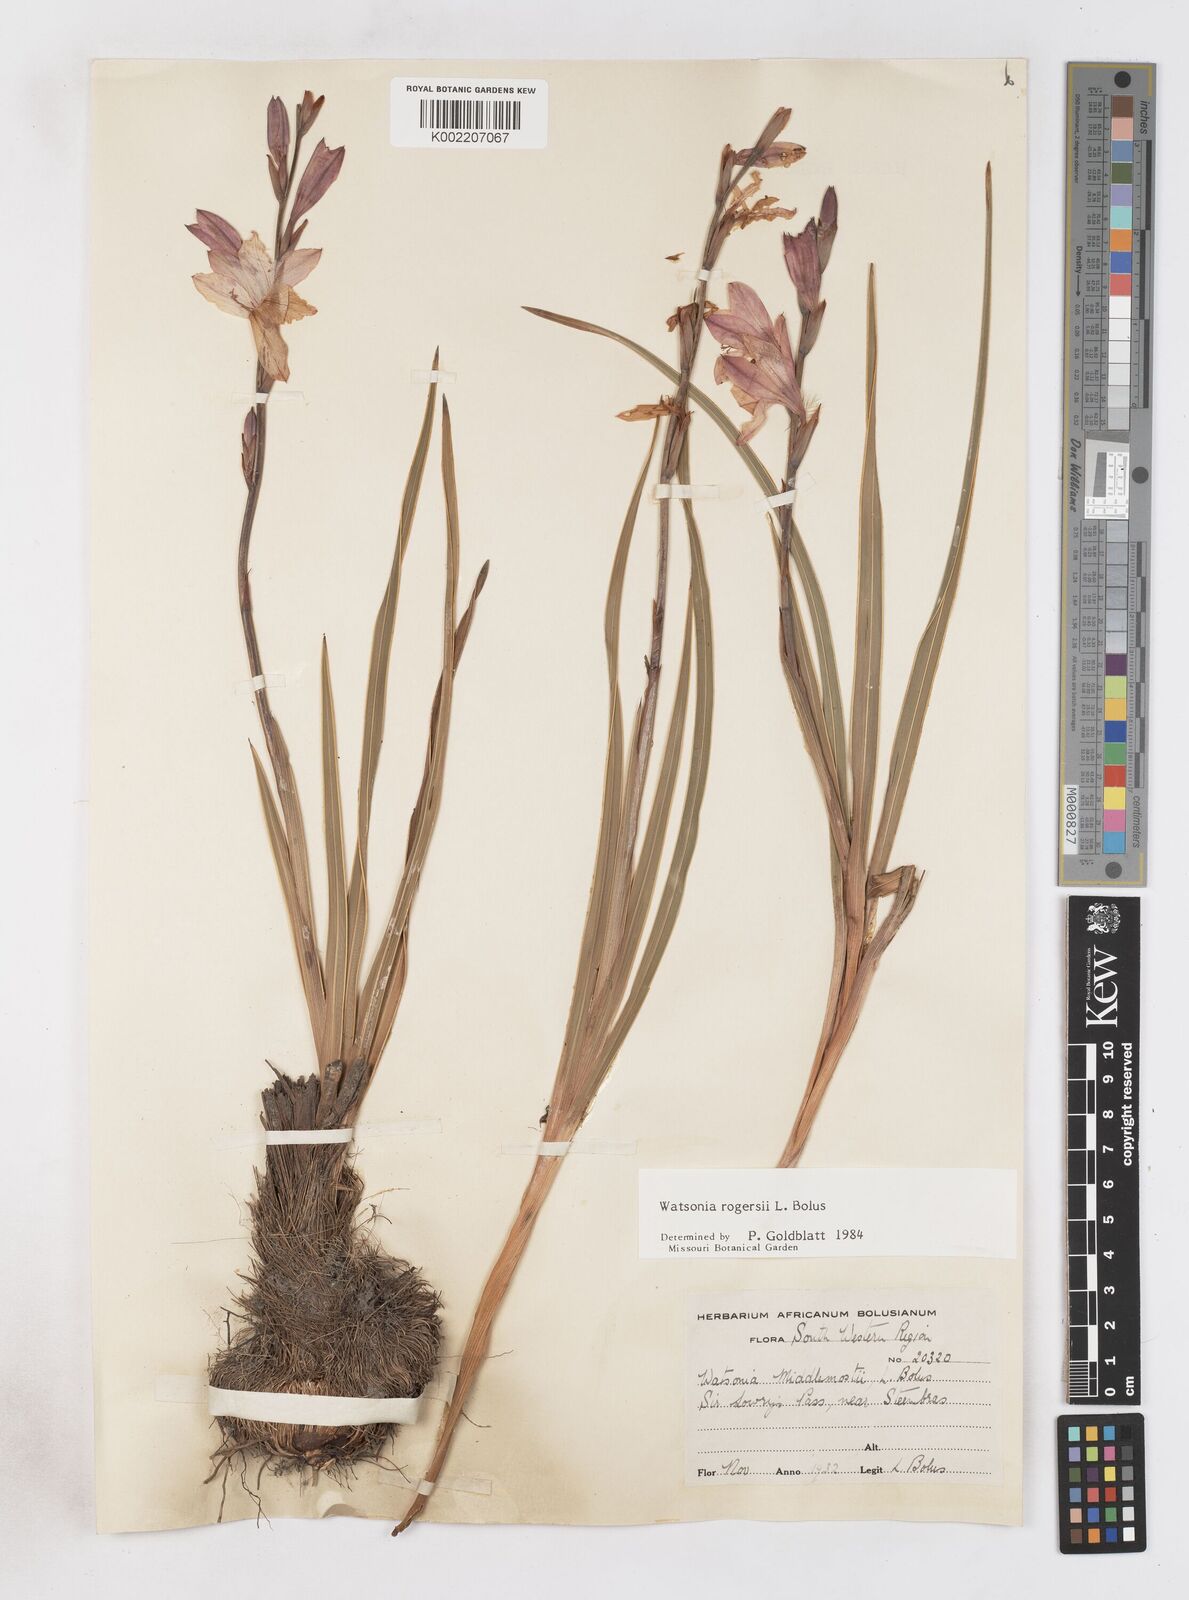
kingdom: Plantae
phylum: Tracheophyta
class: Liliopsida
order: Asparagales
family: Iridaceae
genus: Watsonia
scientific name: Watsonia rogersii
